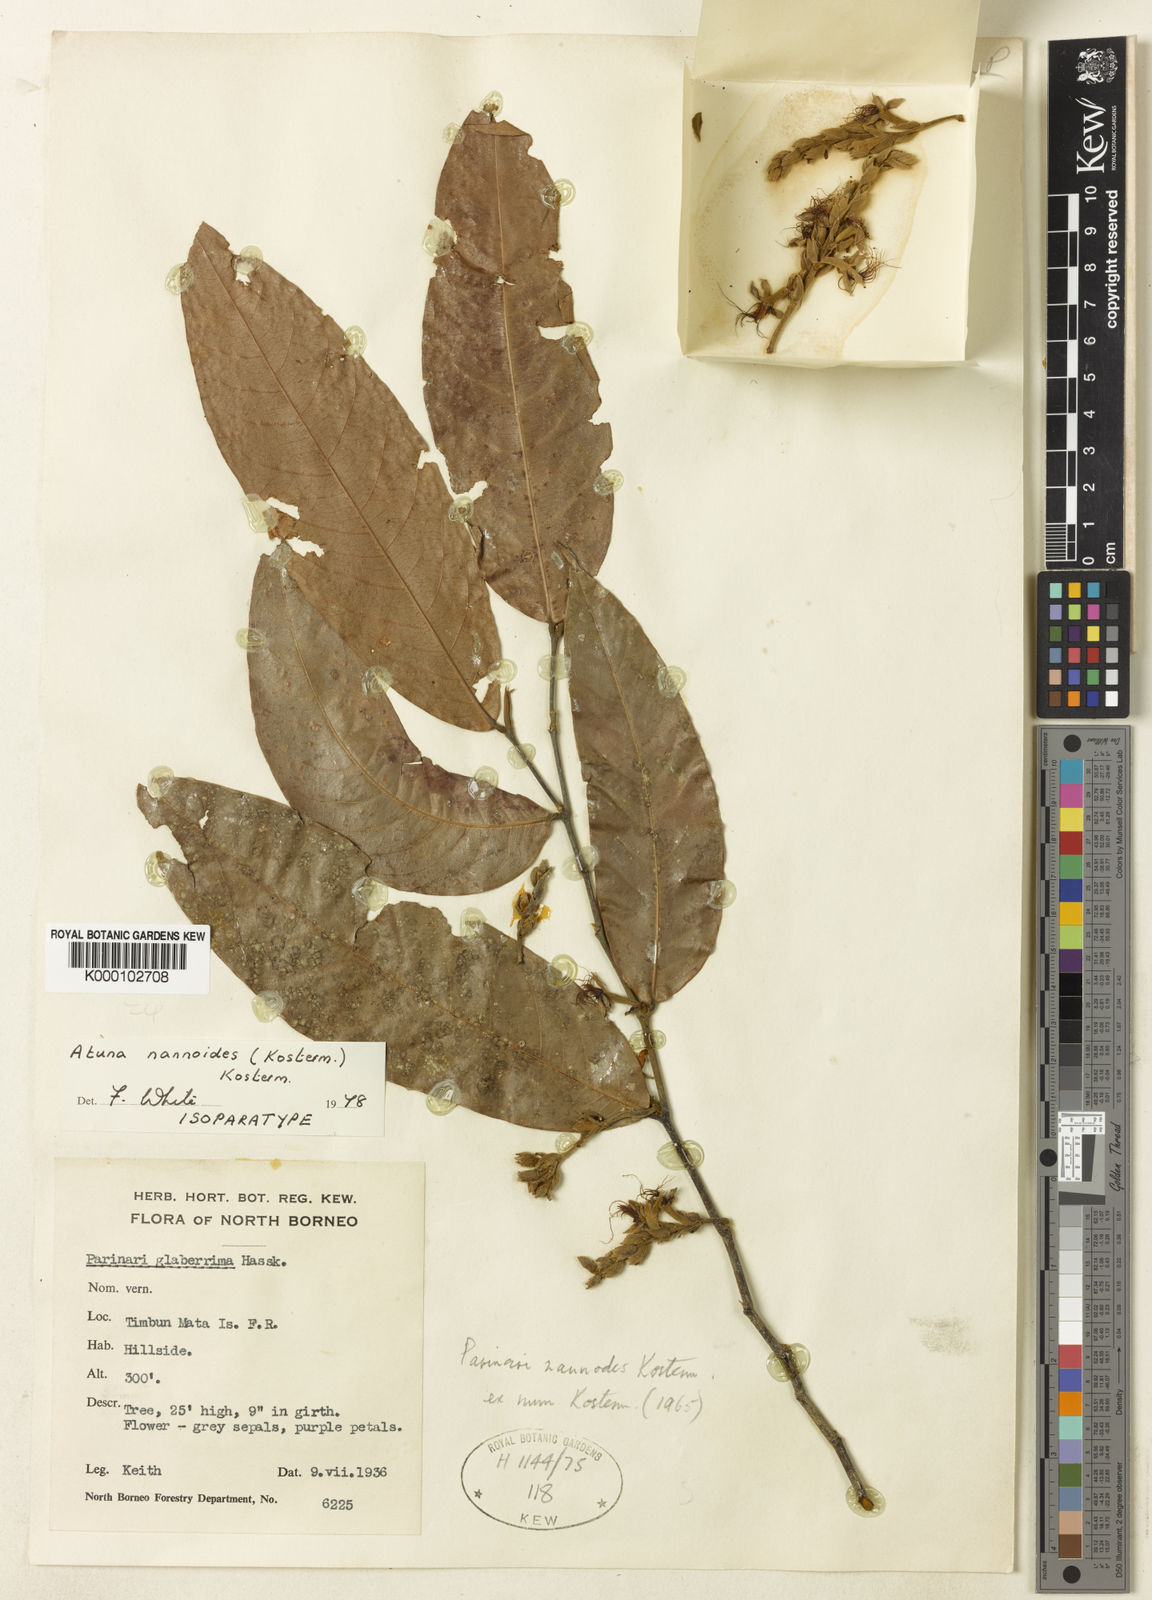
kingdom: Plantae
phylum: Tracheophyta
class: Magnoliopsida
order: Malpighiales
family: Chrysobalanaceae
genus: Atuna
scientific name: Atuna nannodes
